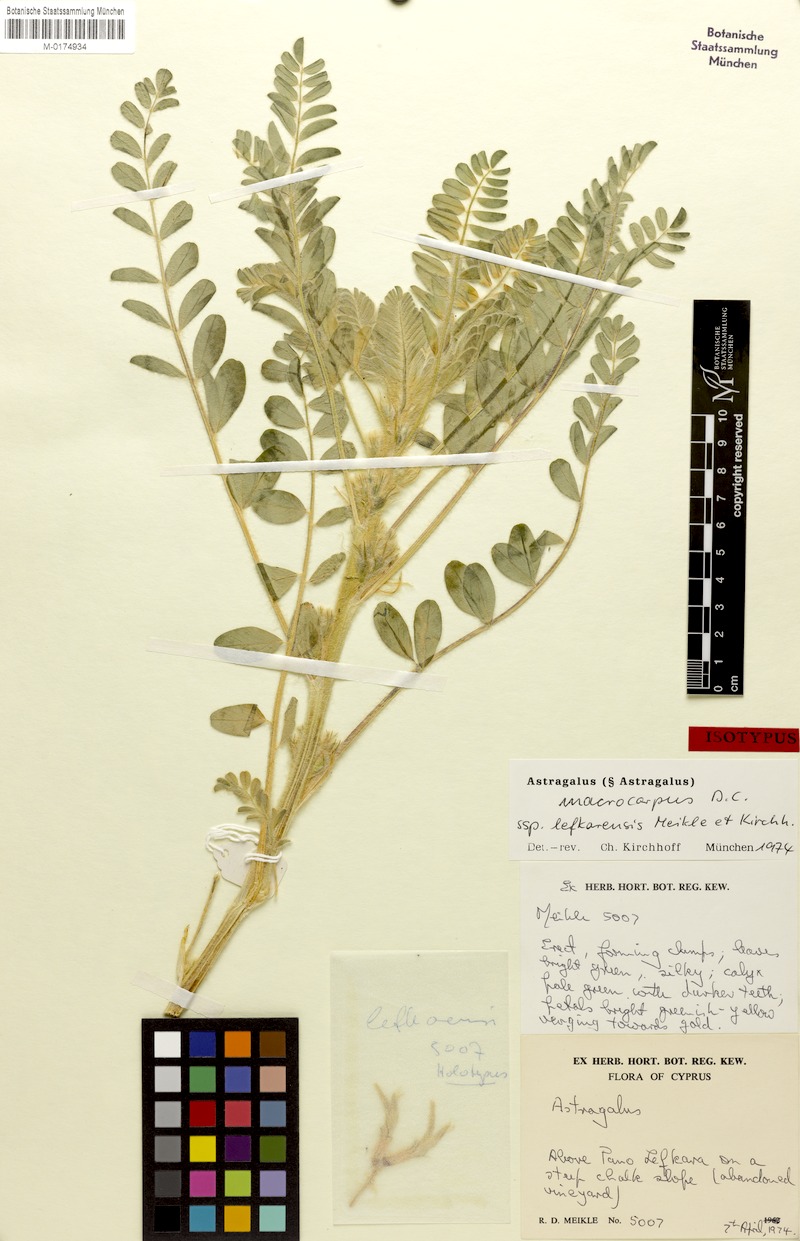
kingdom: Plantae
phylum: Tracheophyta
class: Magnoliopsida
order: Fabales
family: Fabaceae
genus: Astragalus
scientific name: Astragalus macrocarpus
